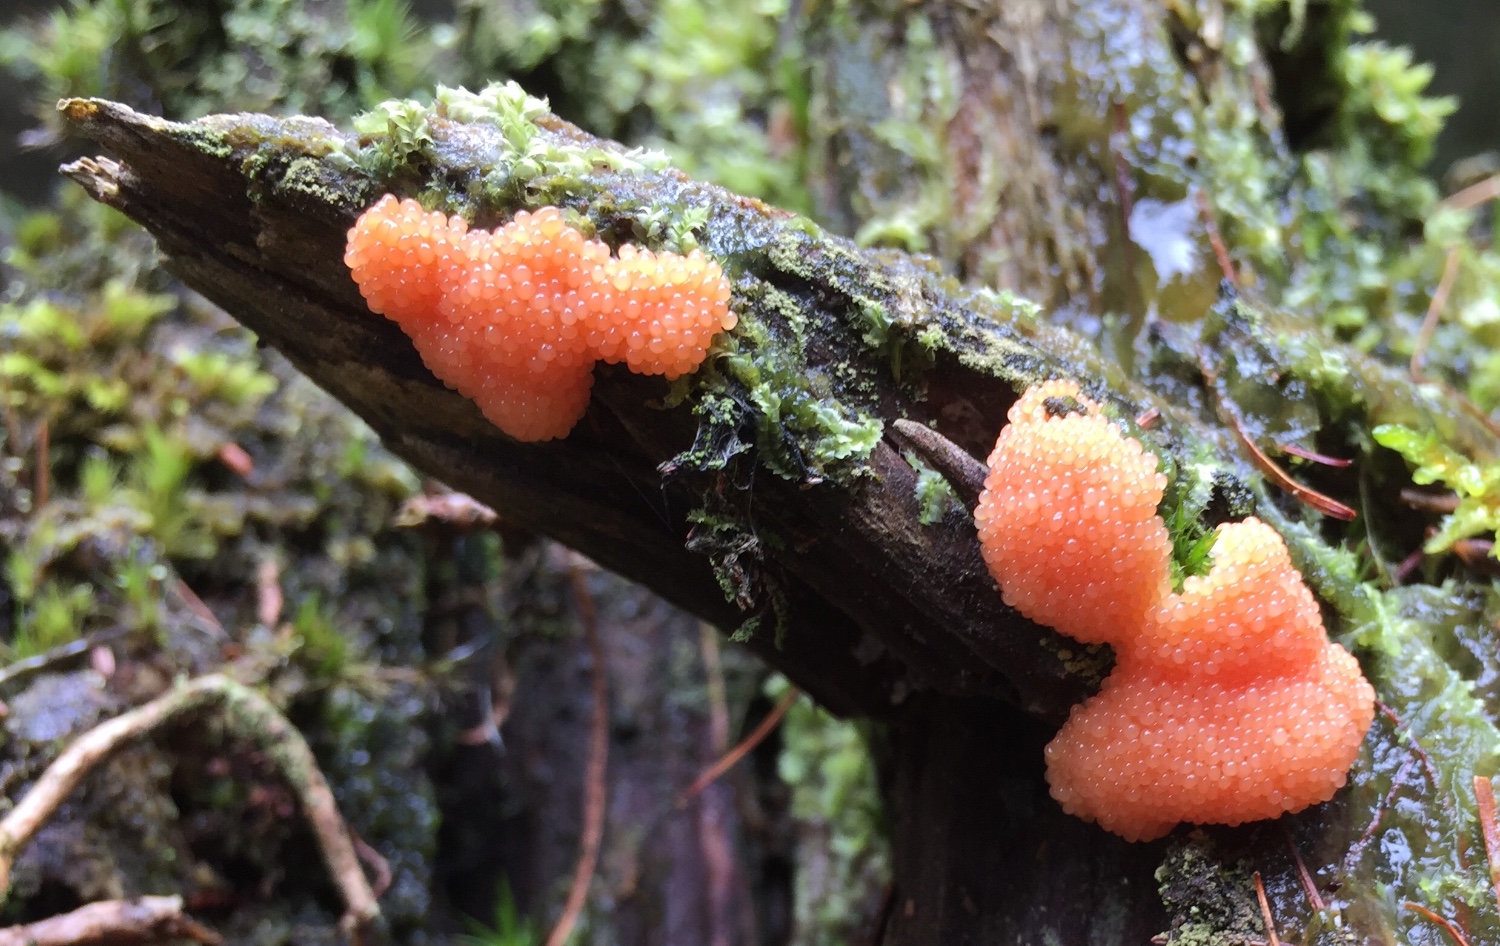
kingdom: Protozoa
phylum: Mycetozoa
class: Myxomycetes
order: Cribrariales
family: Tubiferaceae
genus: Tubifera
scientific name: Tubifera ferruginosa
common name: kanel-støvrør
